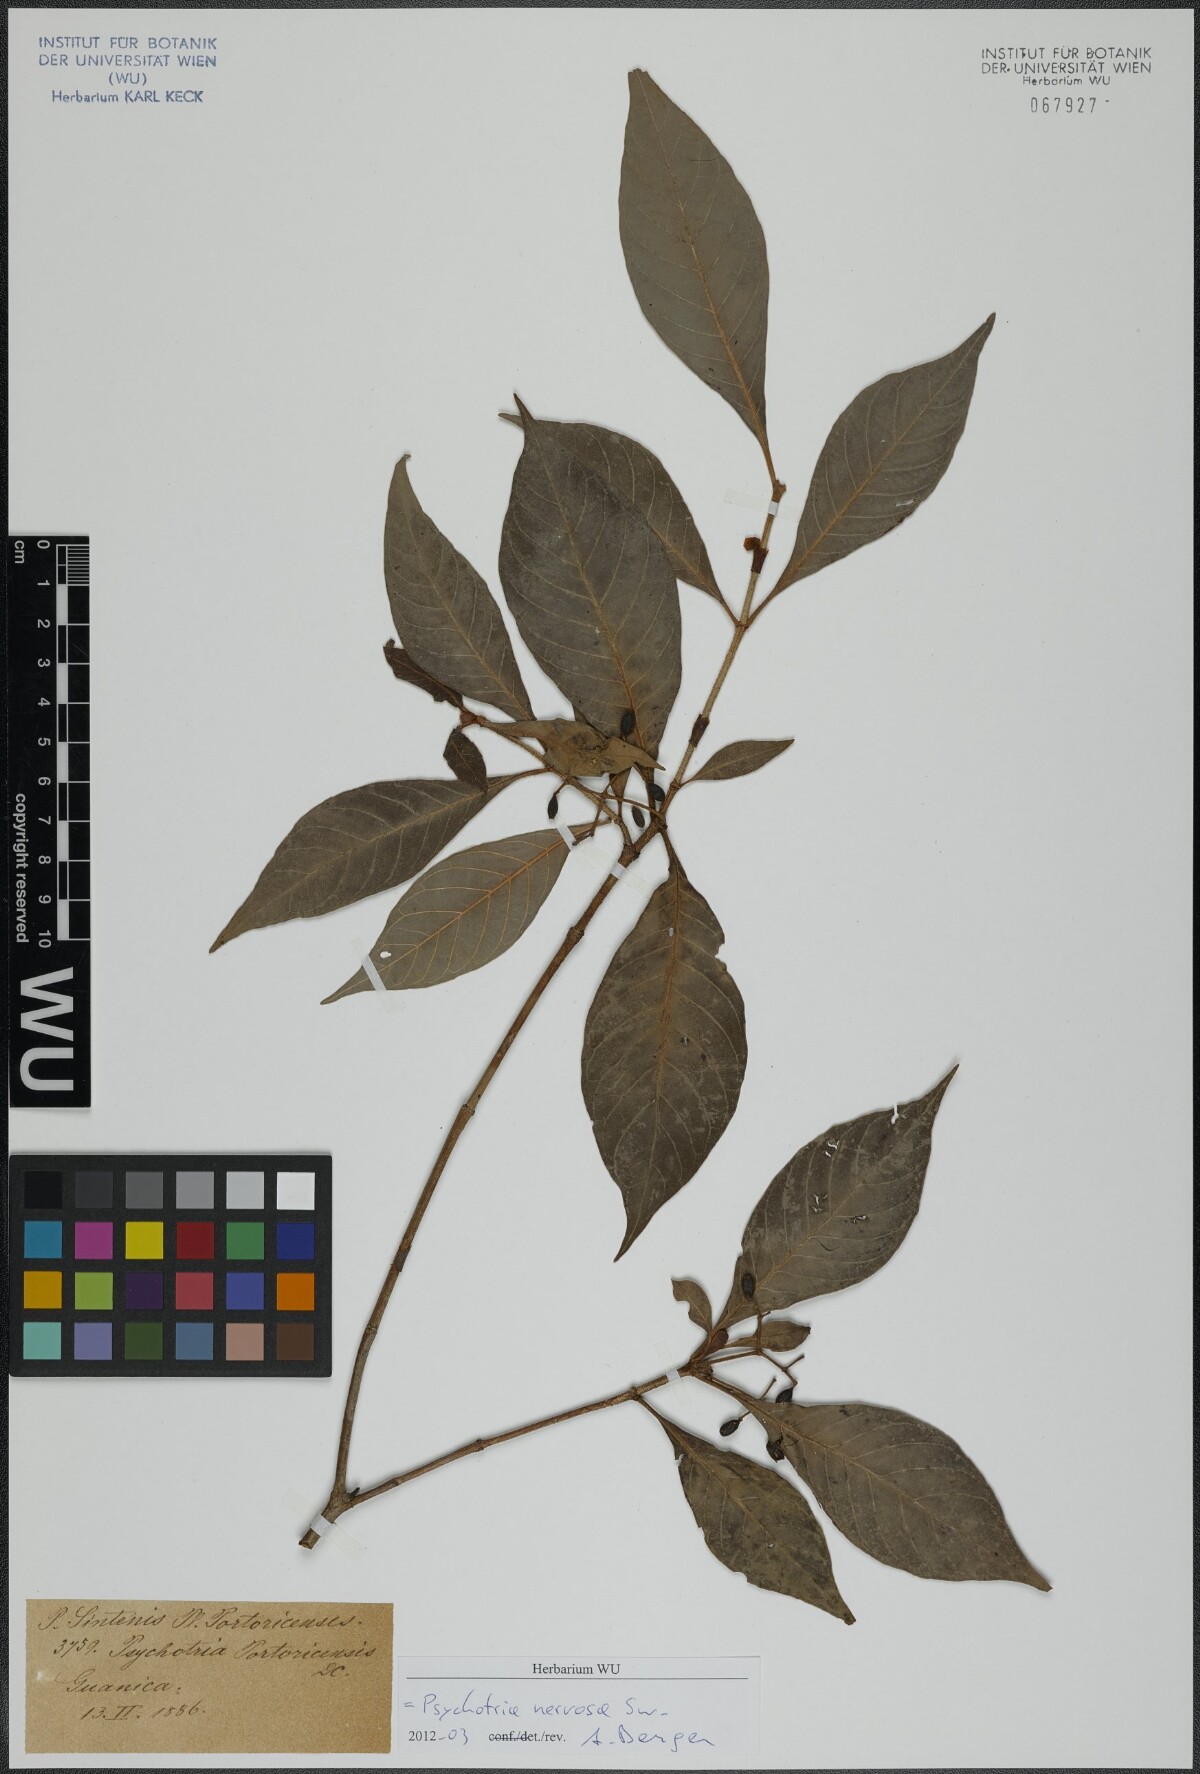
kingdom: Plantae
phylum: Tracheophyta
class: Magnoliopsida
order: Gentianales
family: Rubiaceae
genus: Psychotria
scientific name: Psychotria nervosa
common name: Bastard cankerberry
